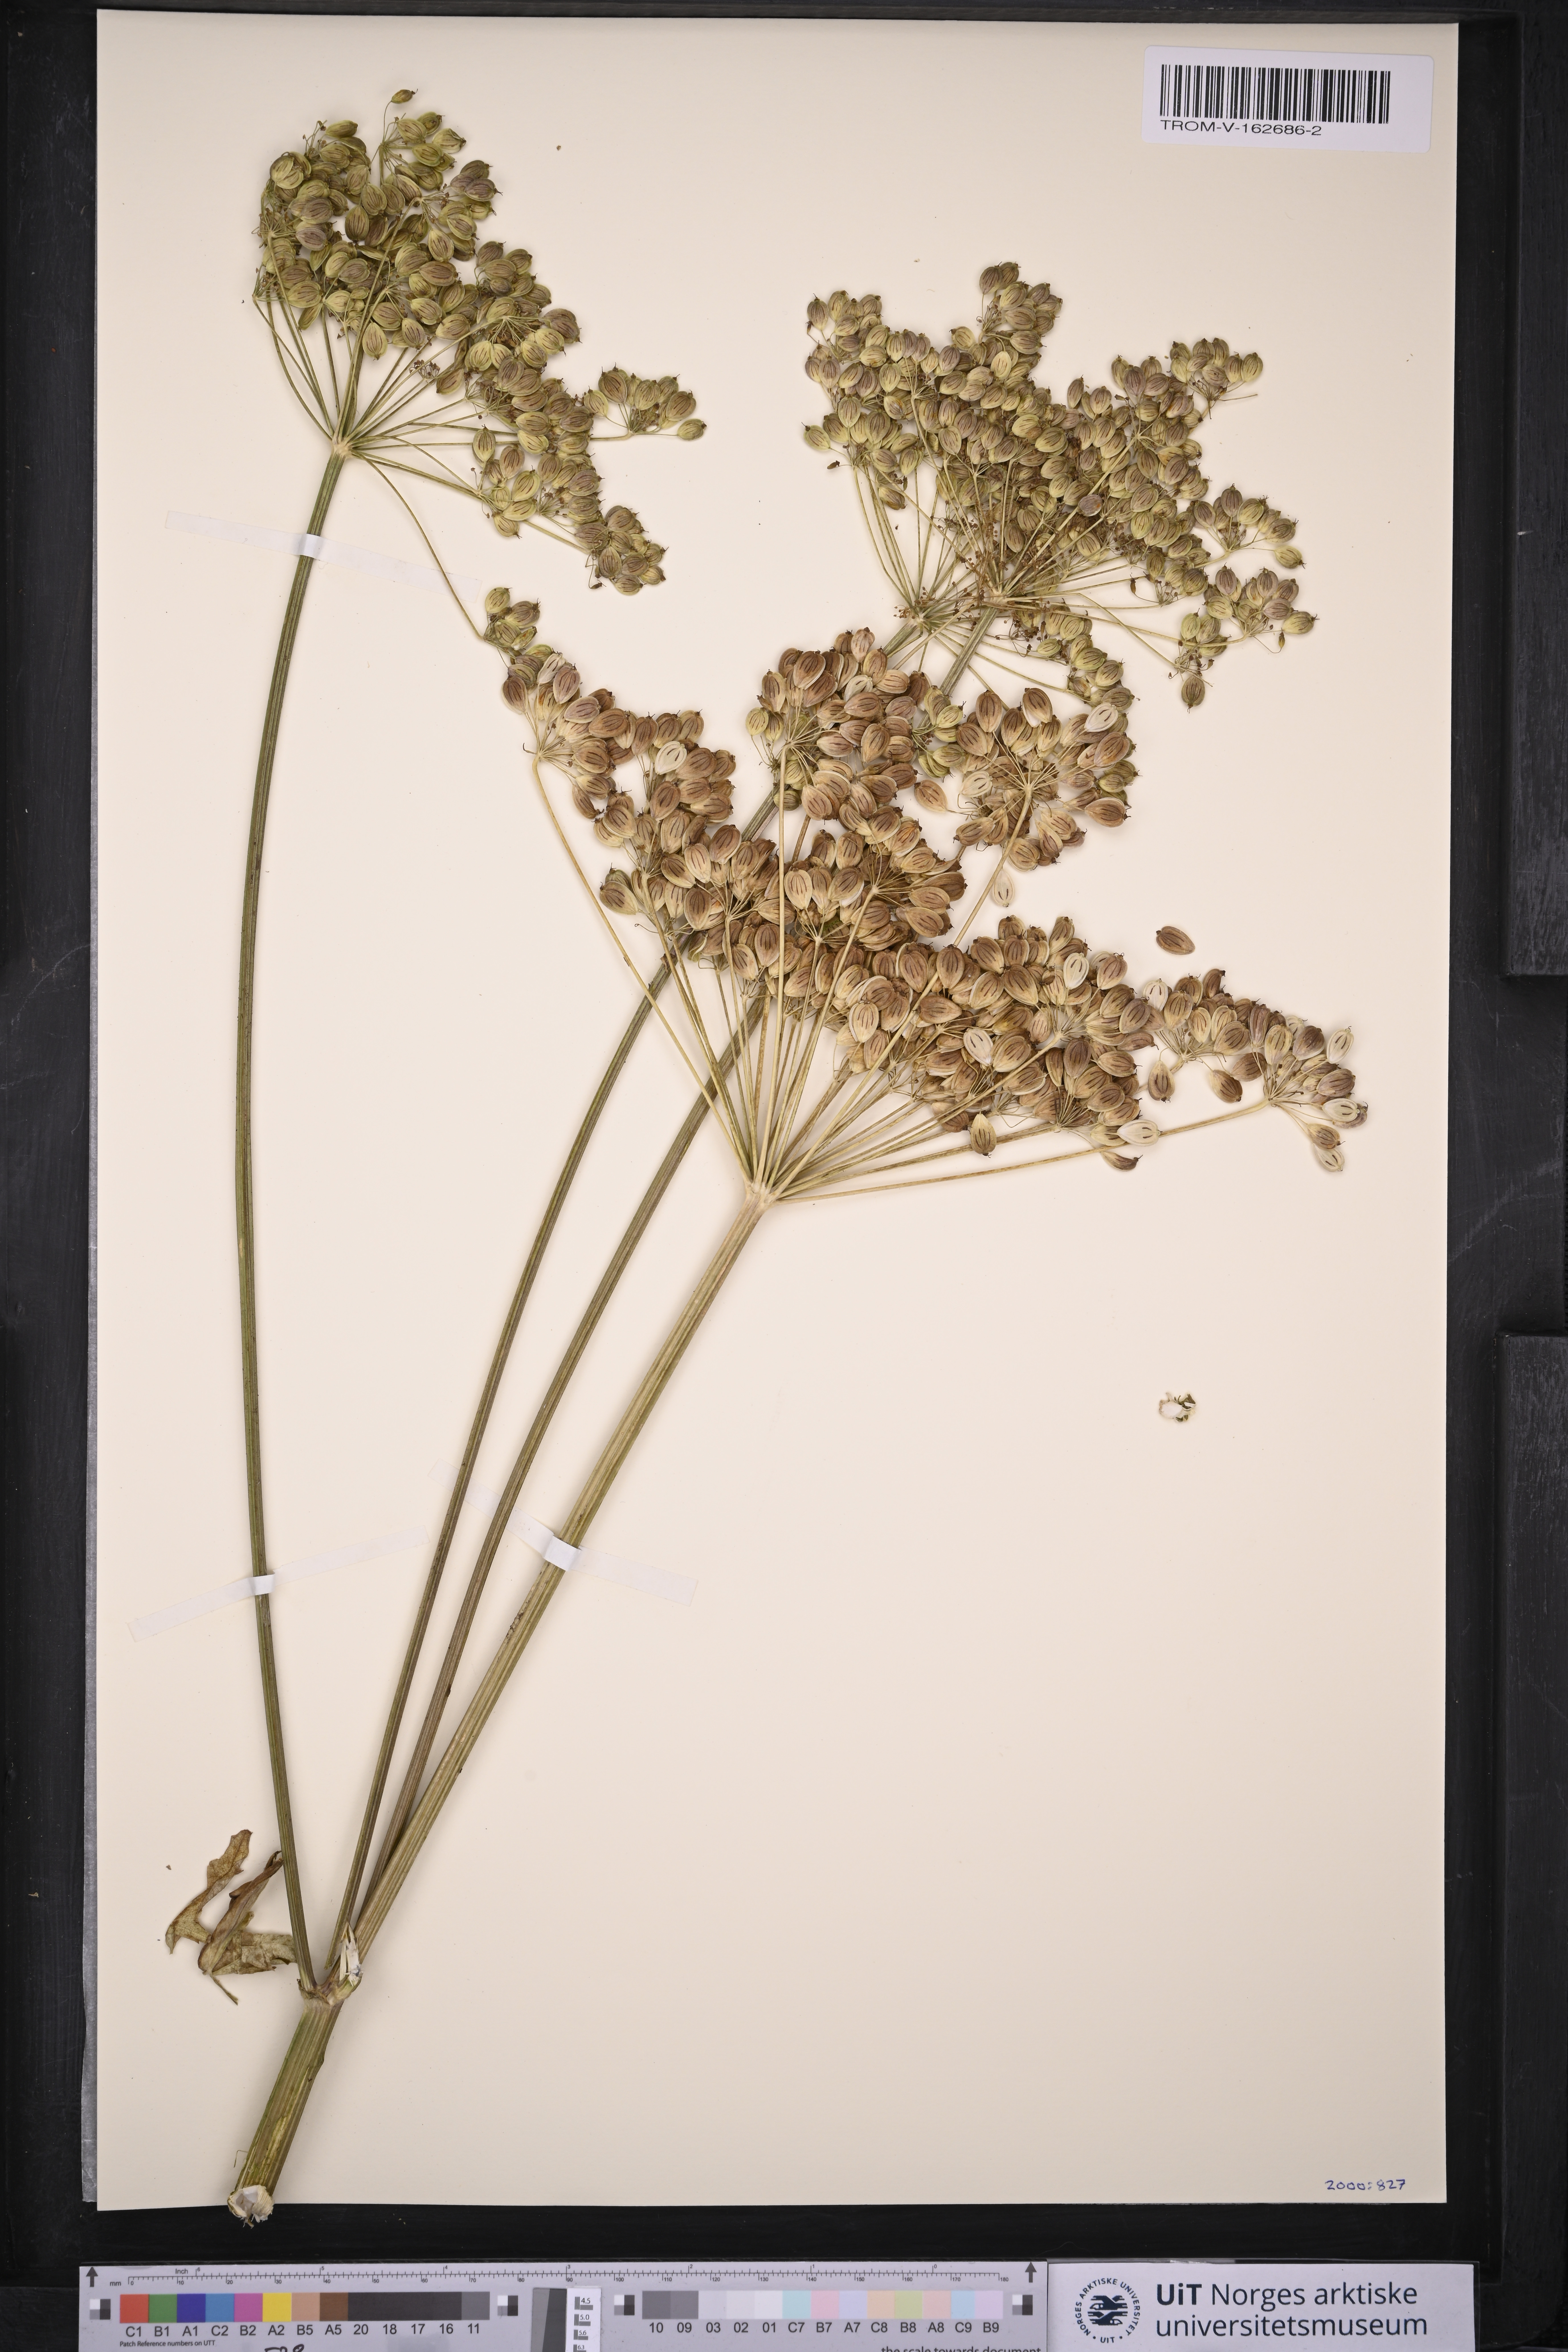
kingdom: Plantae
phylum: Tracheophyta
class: Magnoliopsida
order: Apiales
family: Apiaceae
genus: Heracleum
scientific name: Heracleum sphondylium
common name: Hogweed
